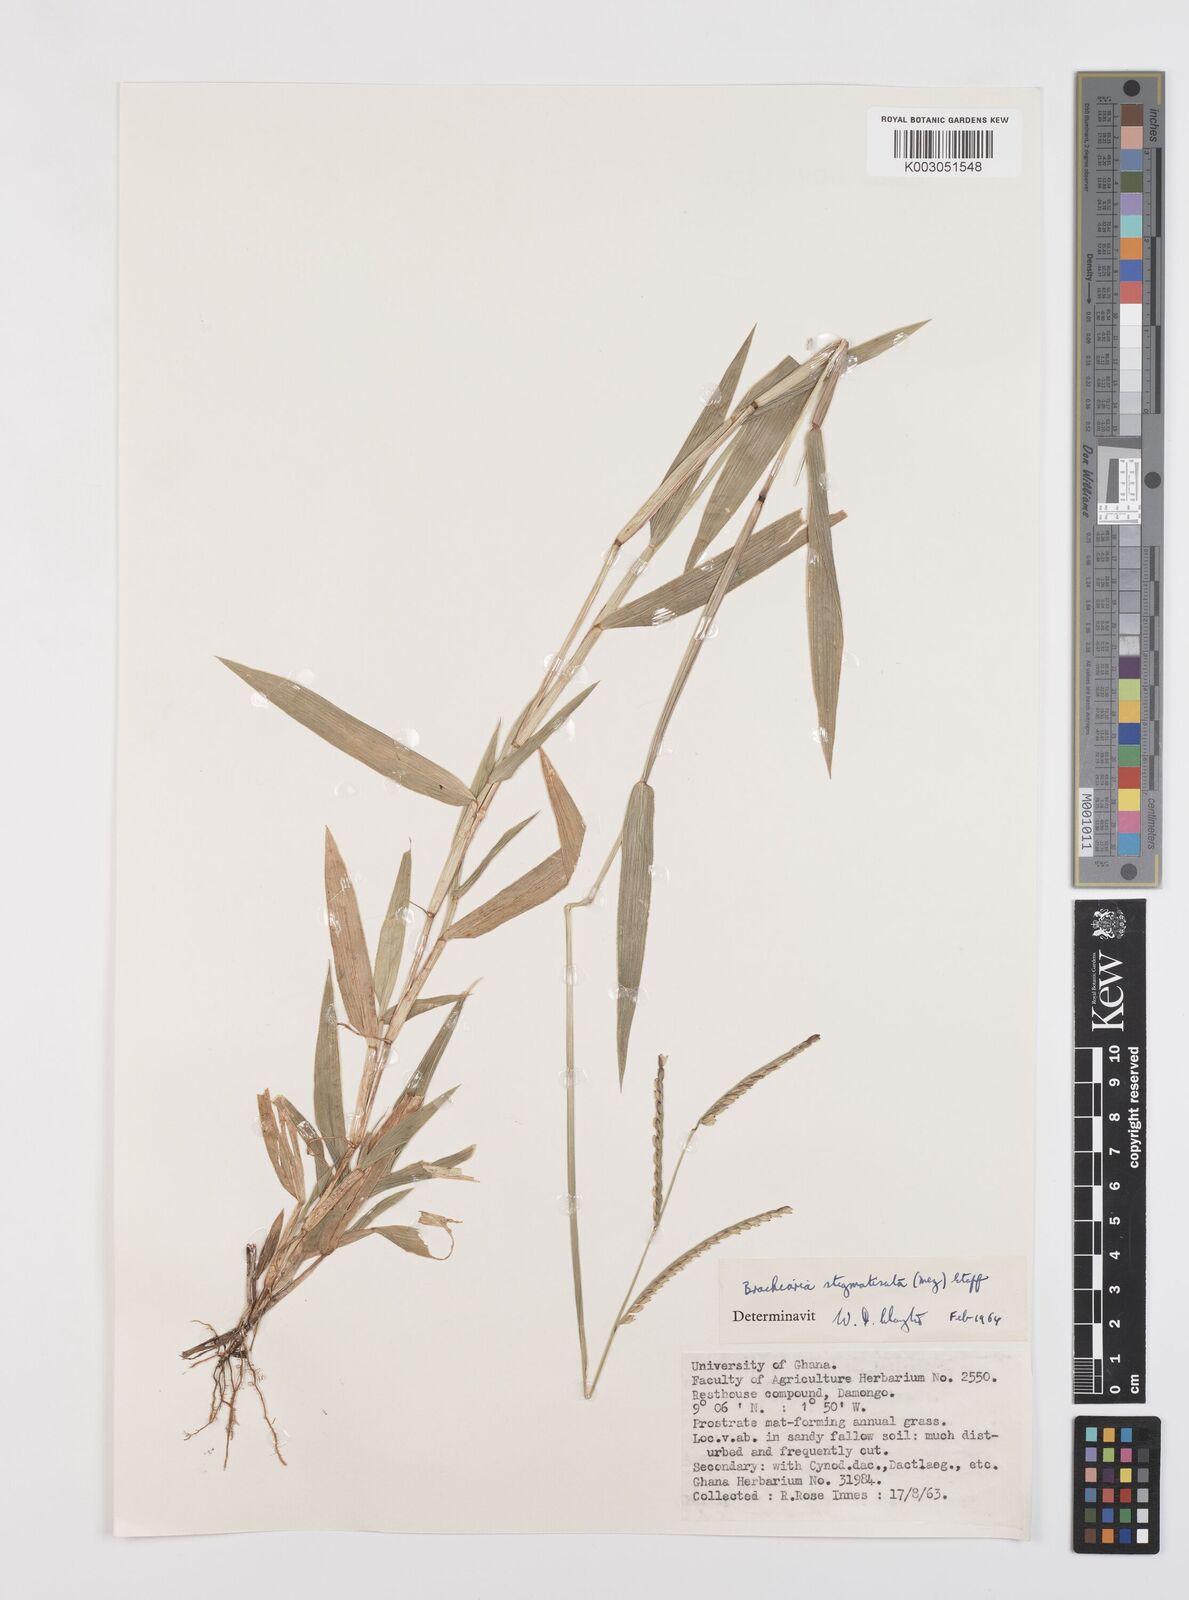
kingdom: Plantae
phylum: Tracheophyta
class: Liliopsida
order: Poales
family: Poaceae
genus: Urochloa
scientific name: Urochloa stigmatisata
